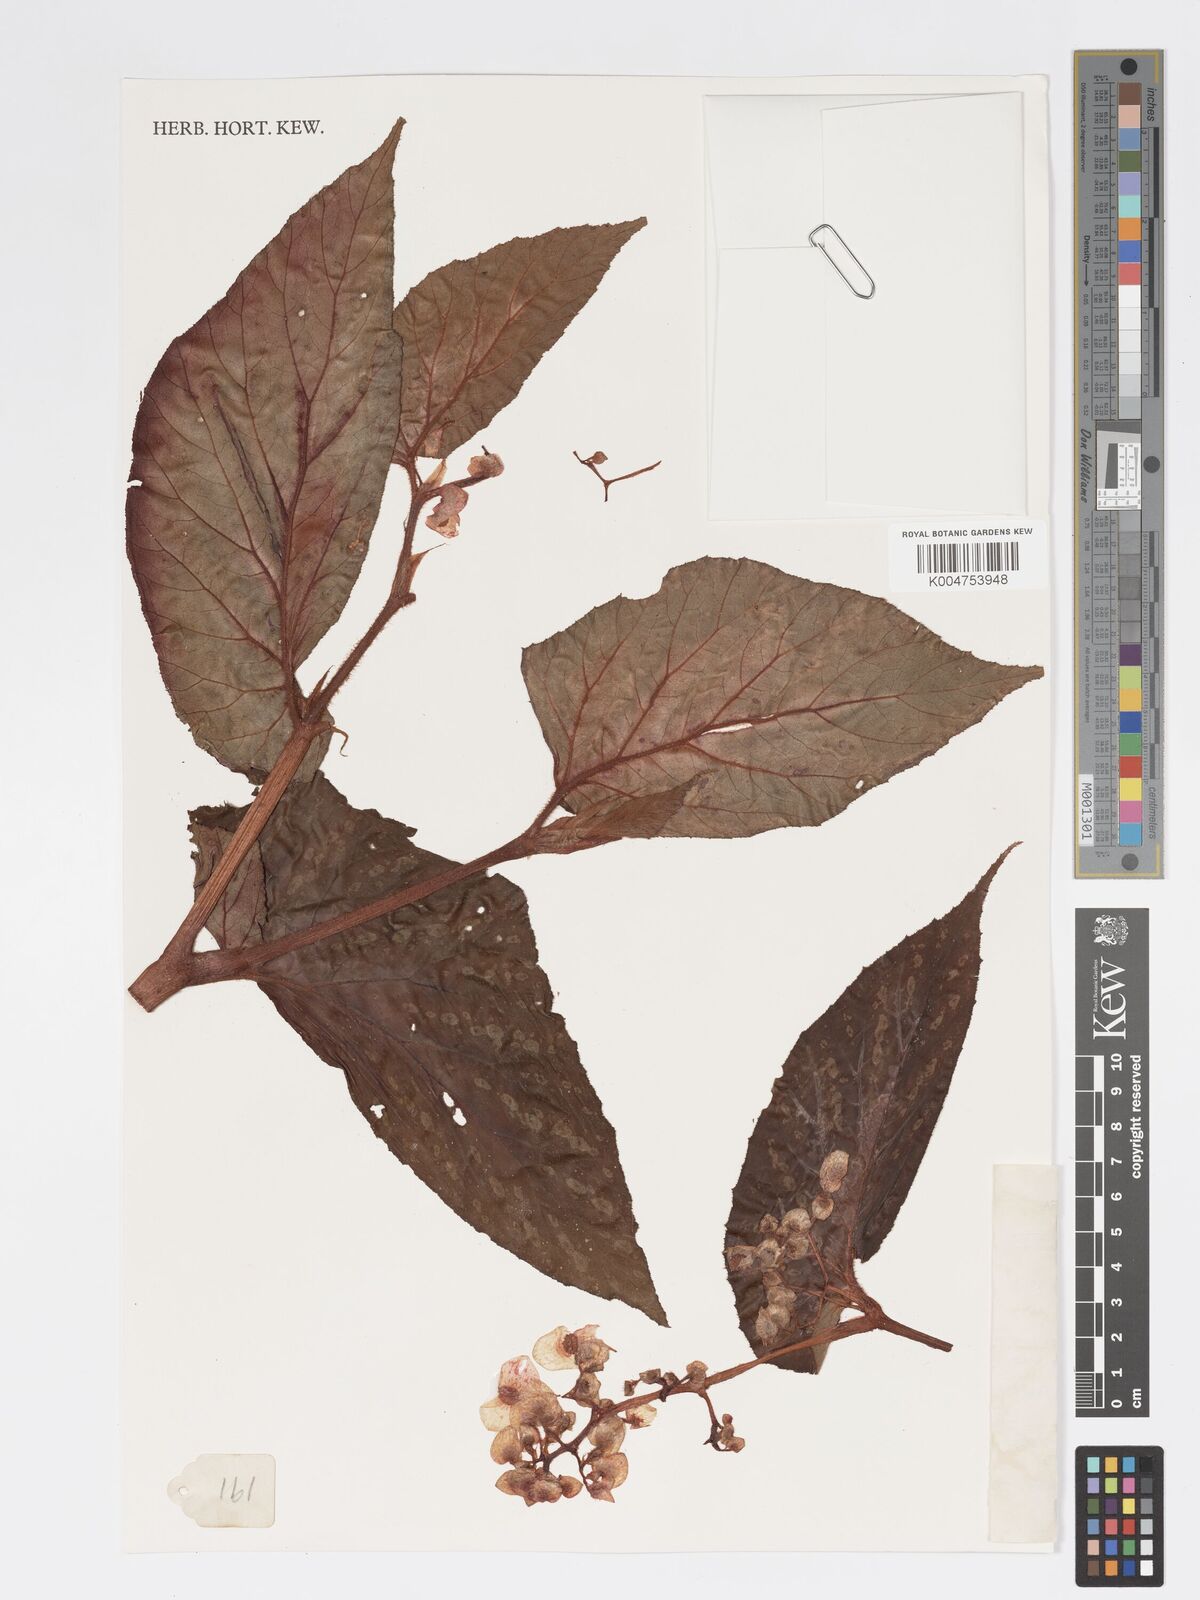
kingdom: Plantae
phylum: Tracheophyta
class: Magnoliopsida
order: Cucurbitales
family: Begoniaceae
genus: Begonia
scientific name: Begonia
